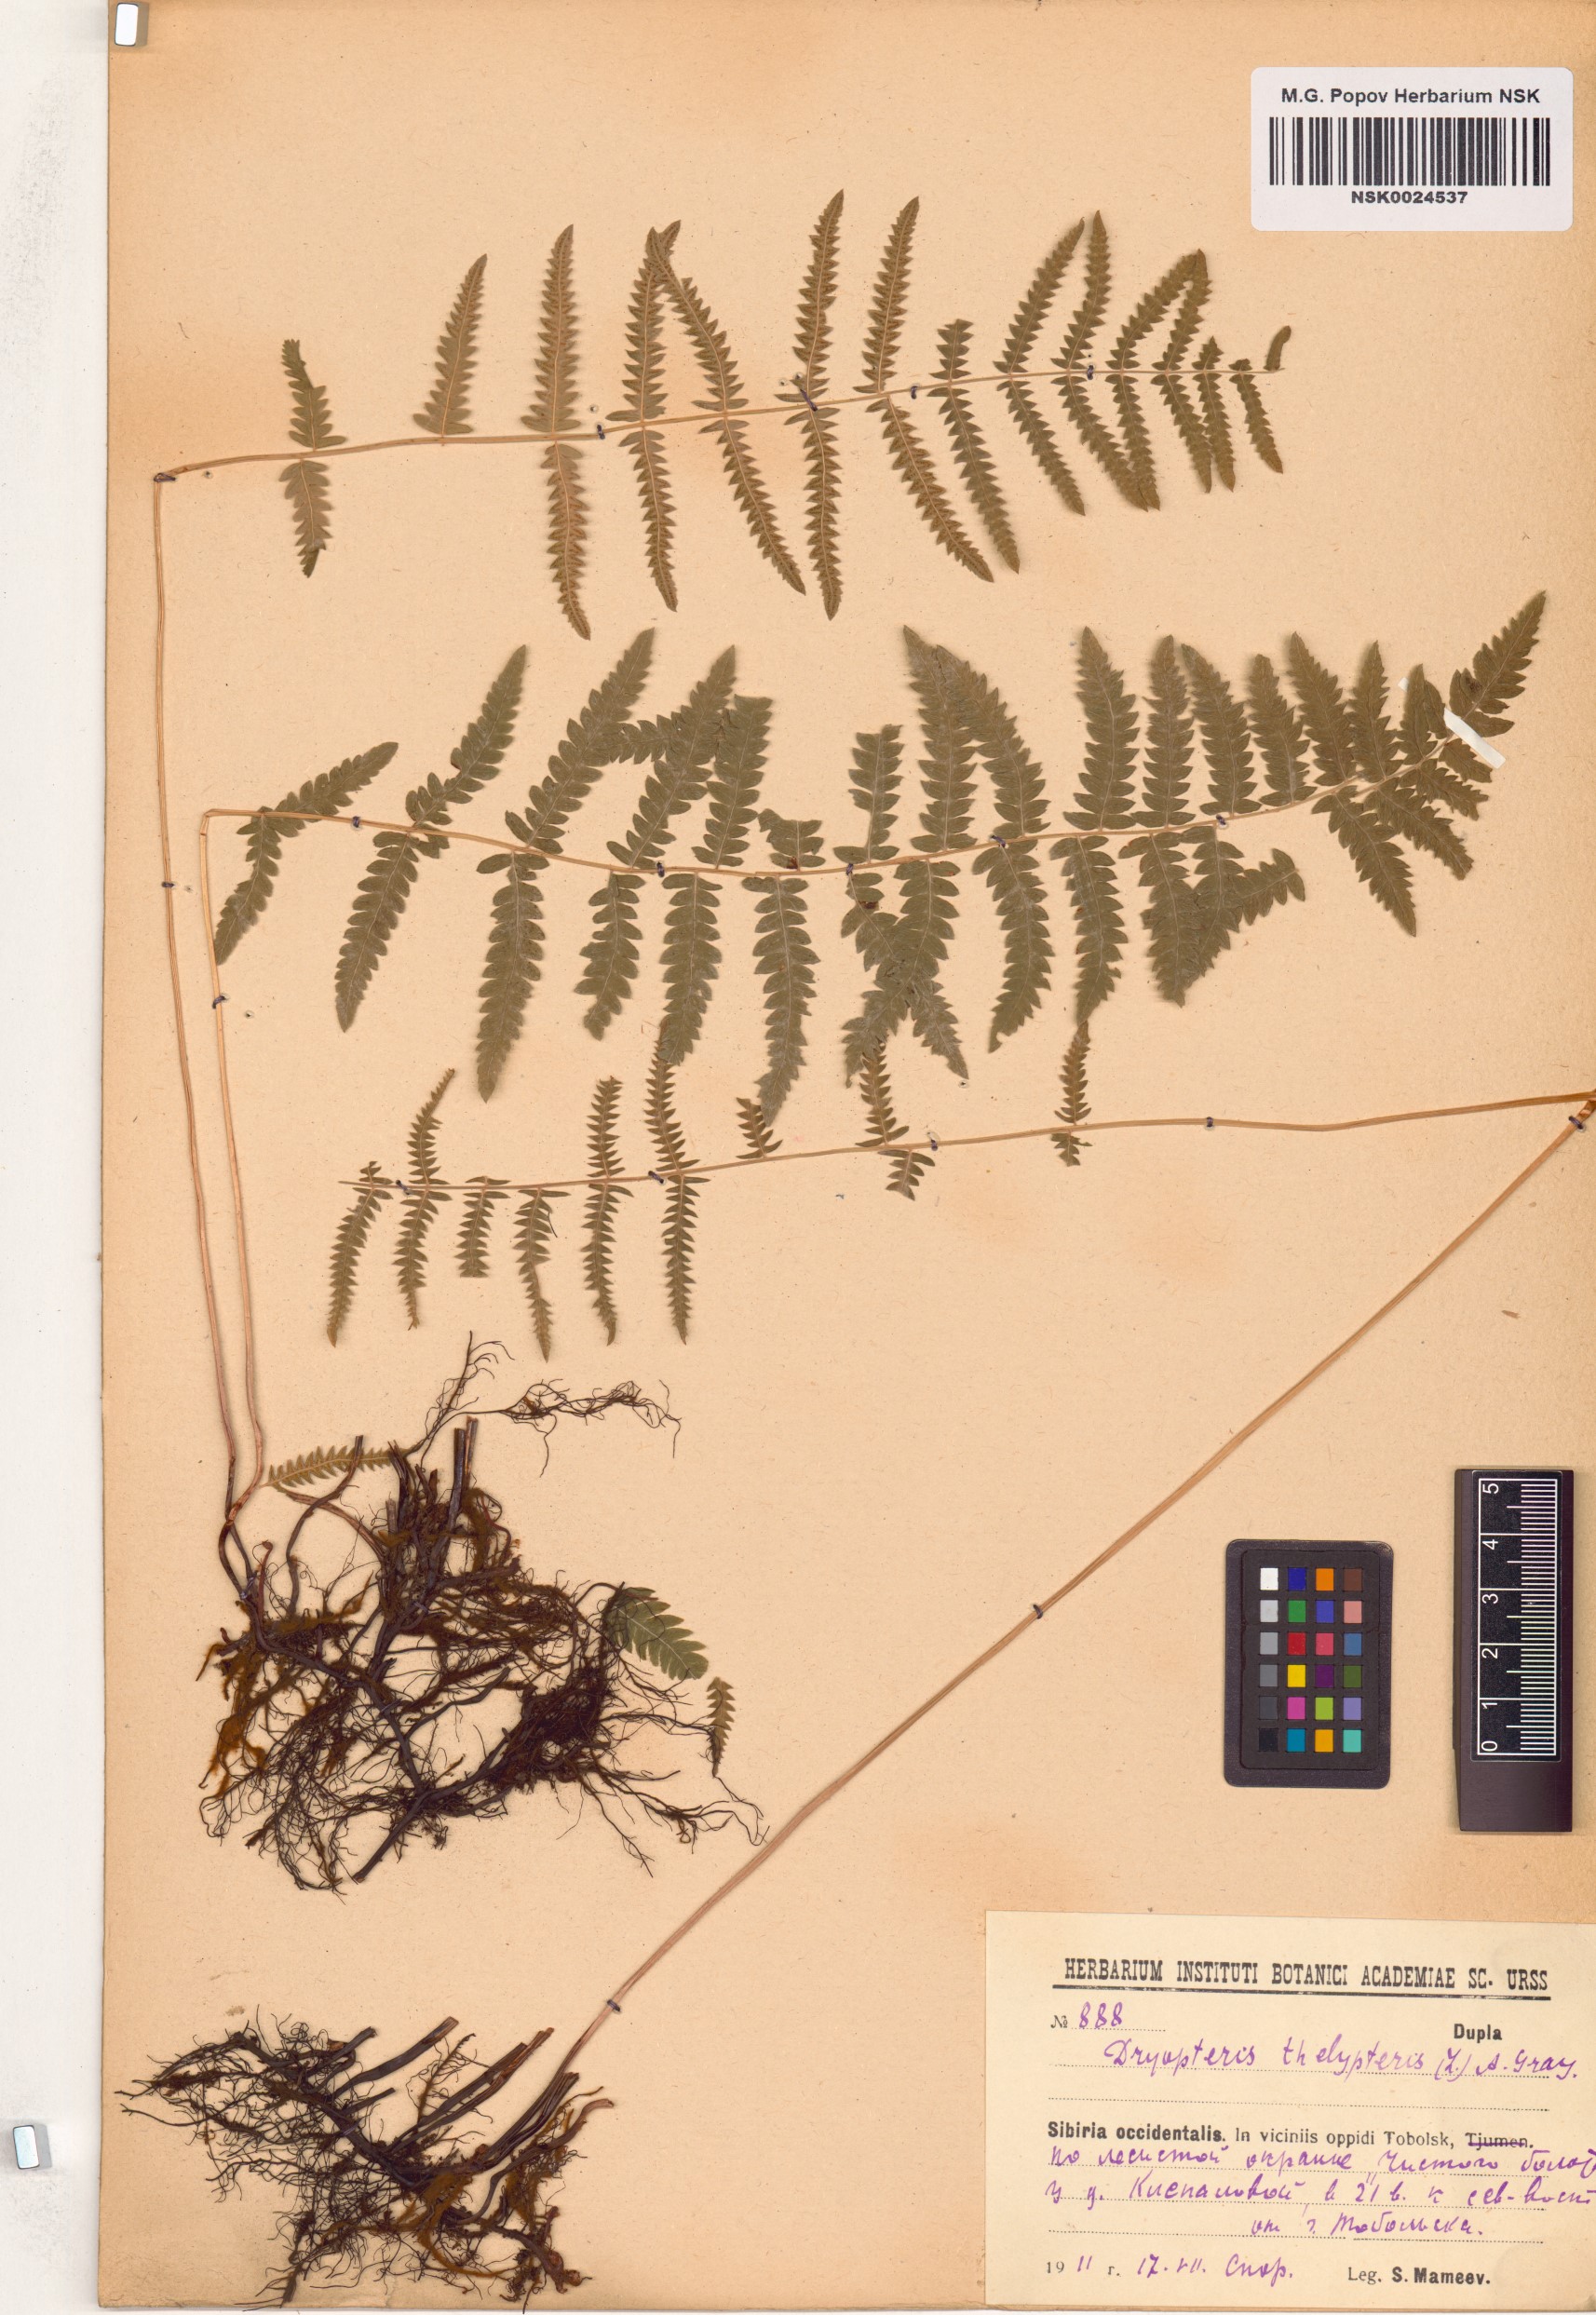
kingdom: Plantae
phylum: Tracheophyta
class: Polypodiopsida
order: Polypodiales
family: Thelypteridaceae
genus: Thelypteris
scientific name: Thelypteris palustris
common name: Marsh fern
